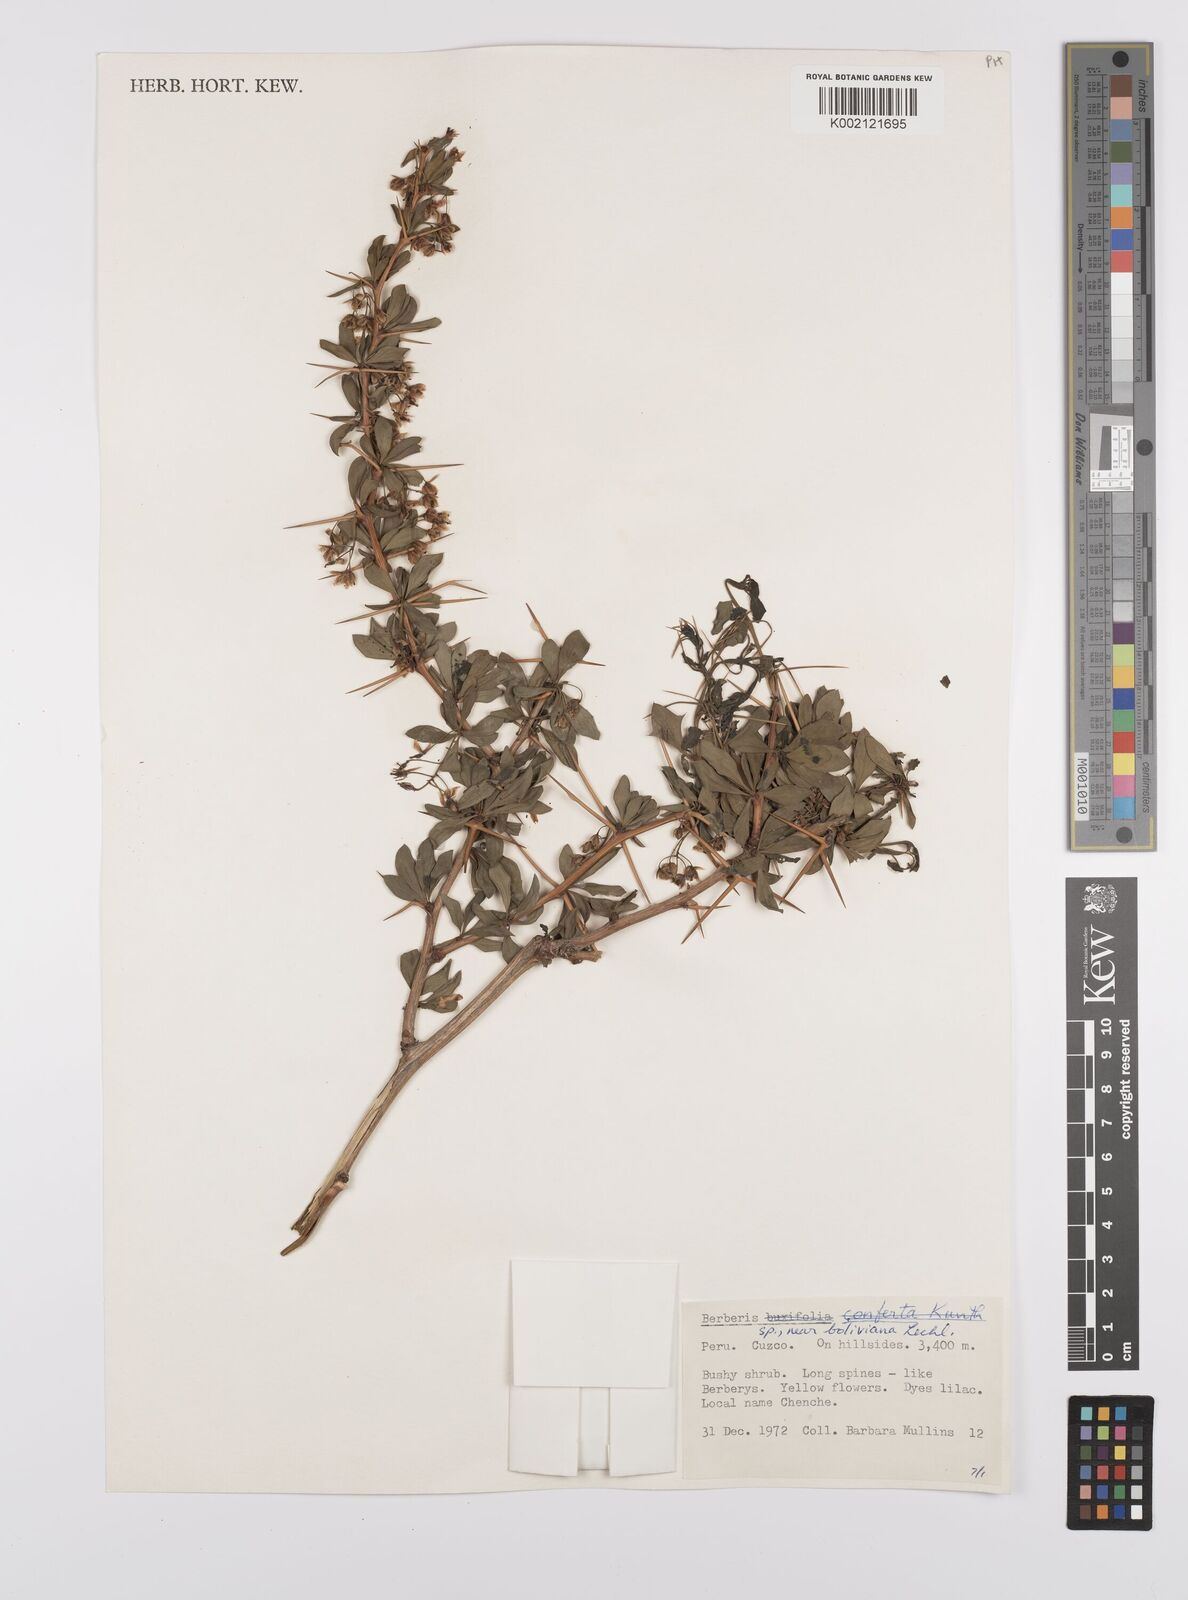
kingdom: Plantae
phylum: Tracheophyta
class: Magnoliopsida
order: Ranunculales
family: Berberidaceae
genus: Berberis
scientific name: Berberis boliviana
